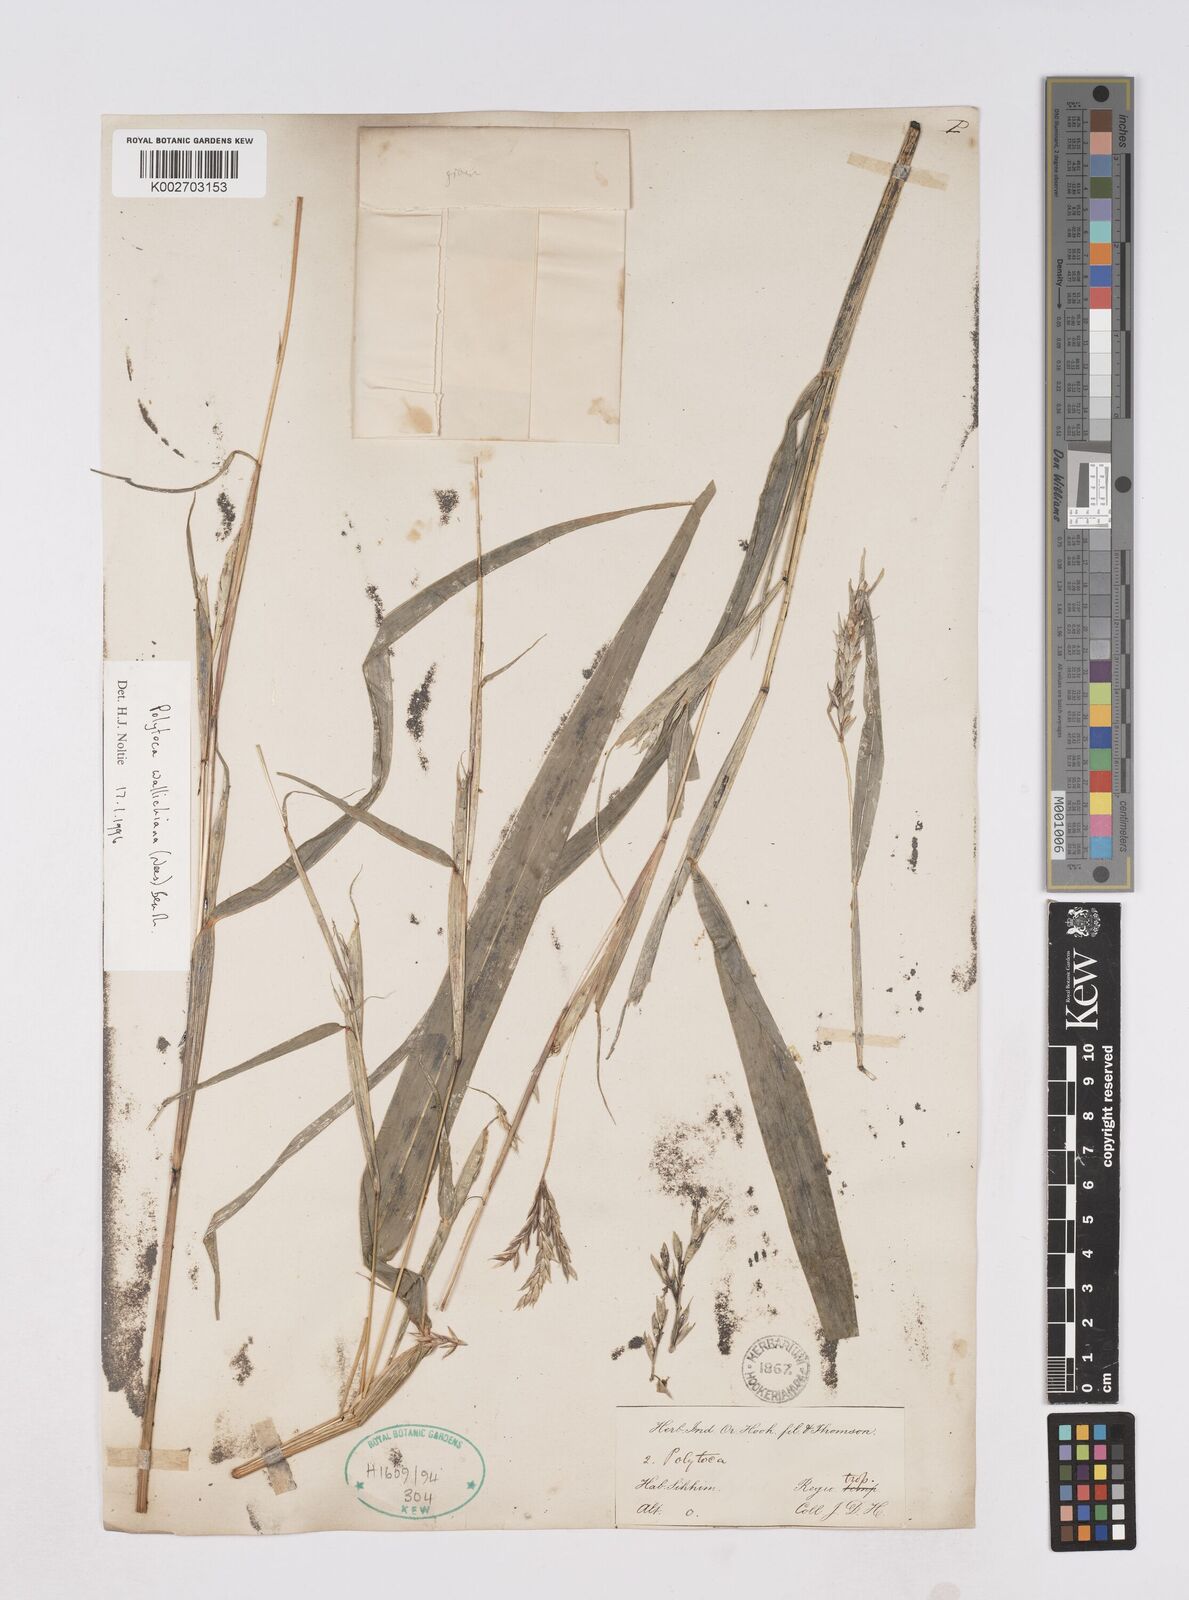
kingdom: Plantae
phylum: Tracheophyta
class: Liliopsida
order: Poales
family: Poaceae
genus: Polytoca
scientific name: Polytoca wallichiana
